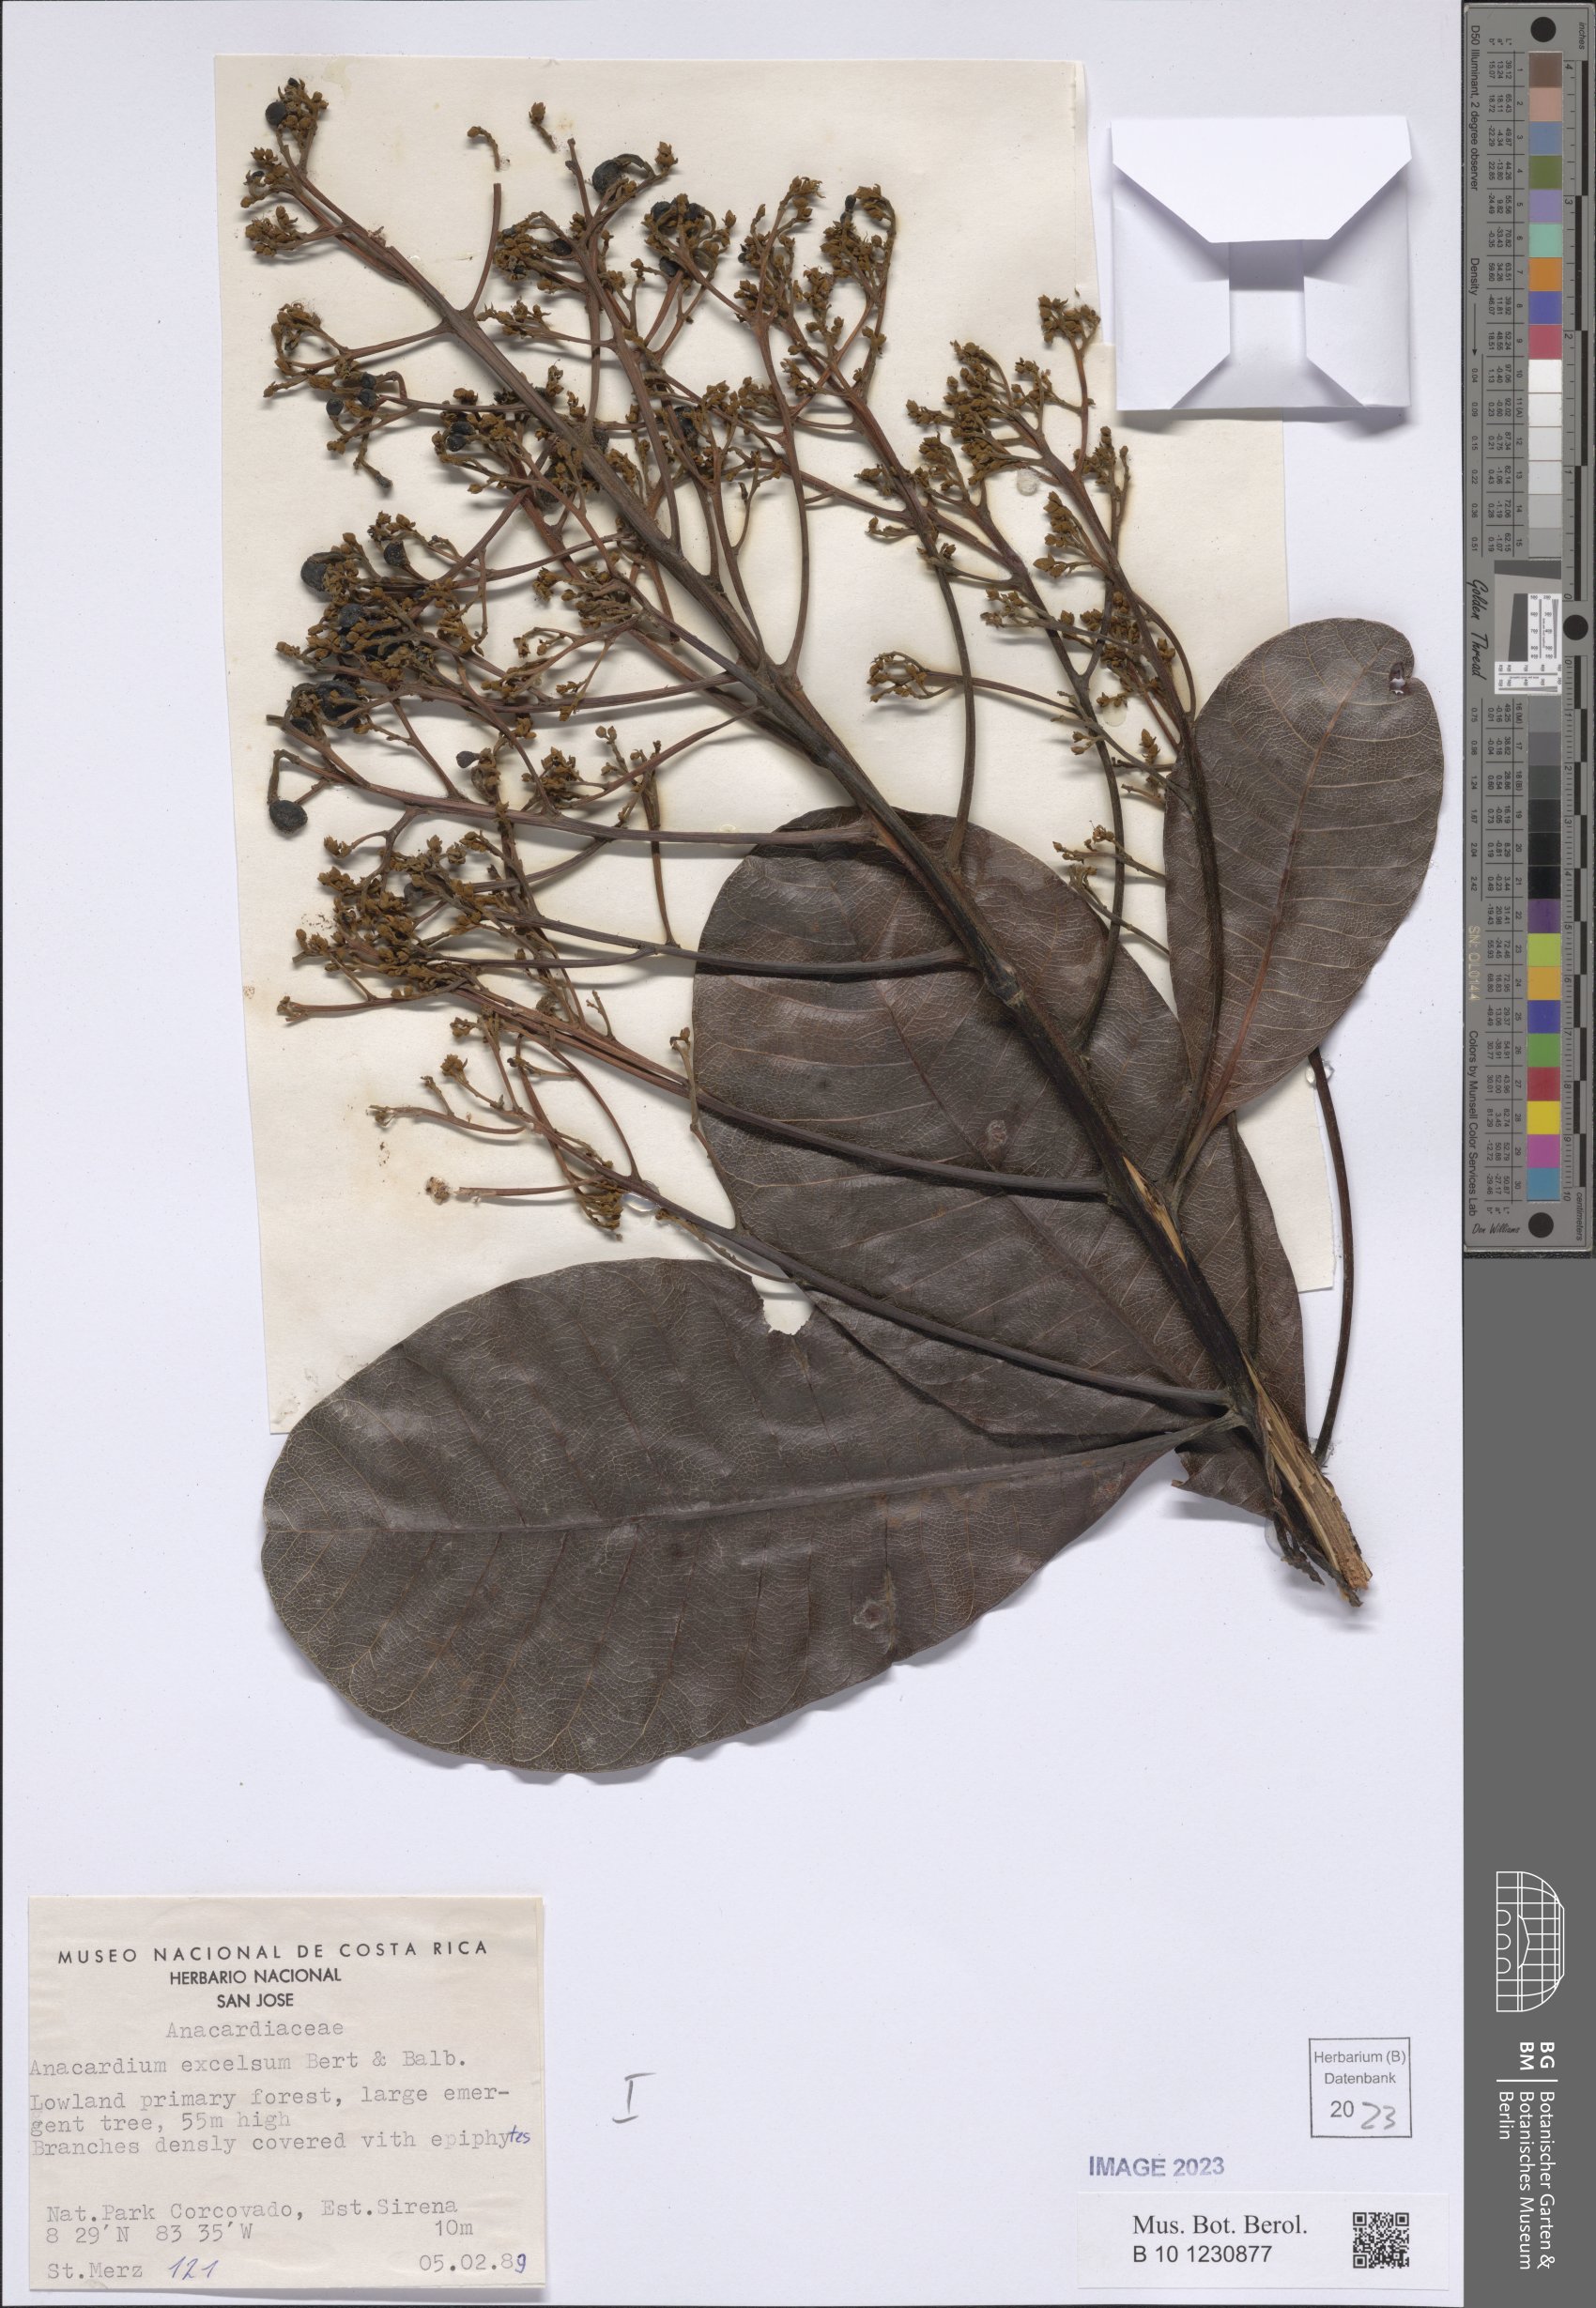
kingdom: Plantae
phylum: Tracheophyta
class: Magnoliopsida
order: Sapindales
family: Anacardiaceae
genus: Anacardium
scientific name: Anacardium excelsum
